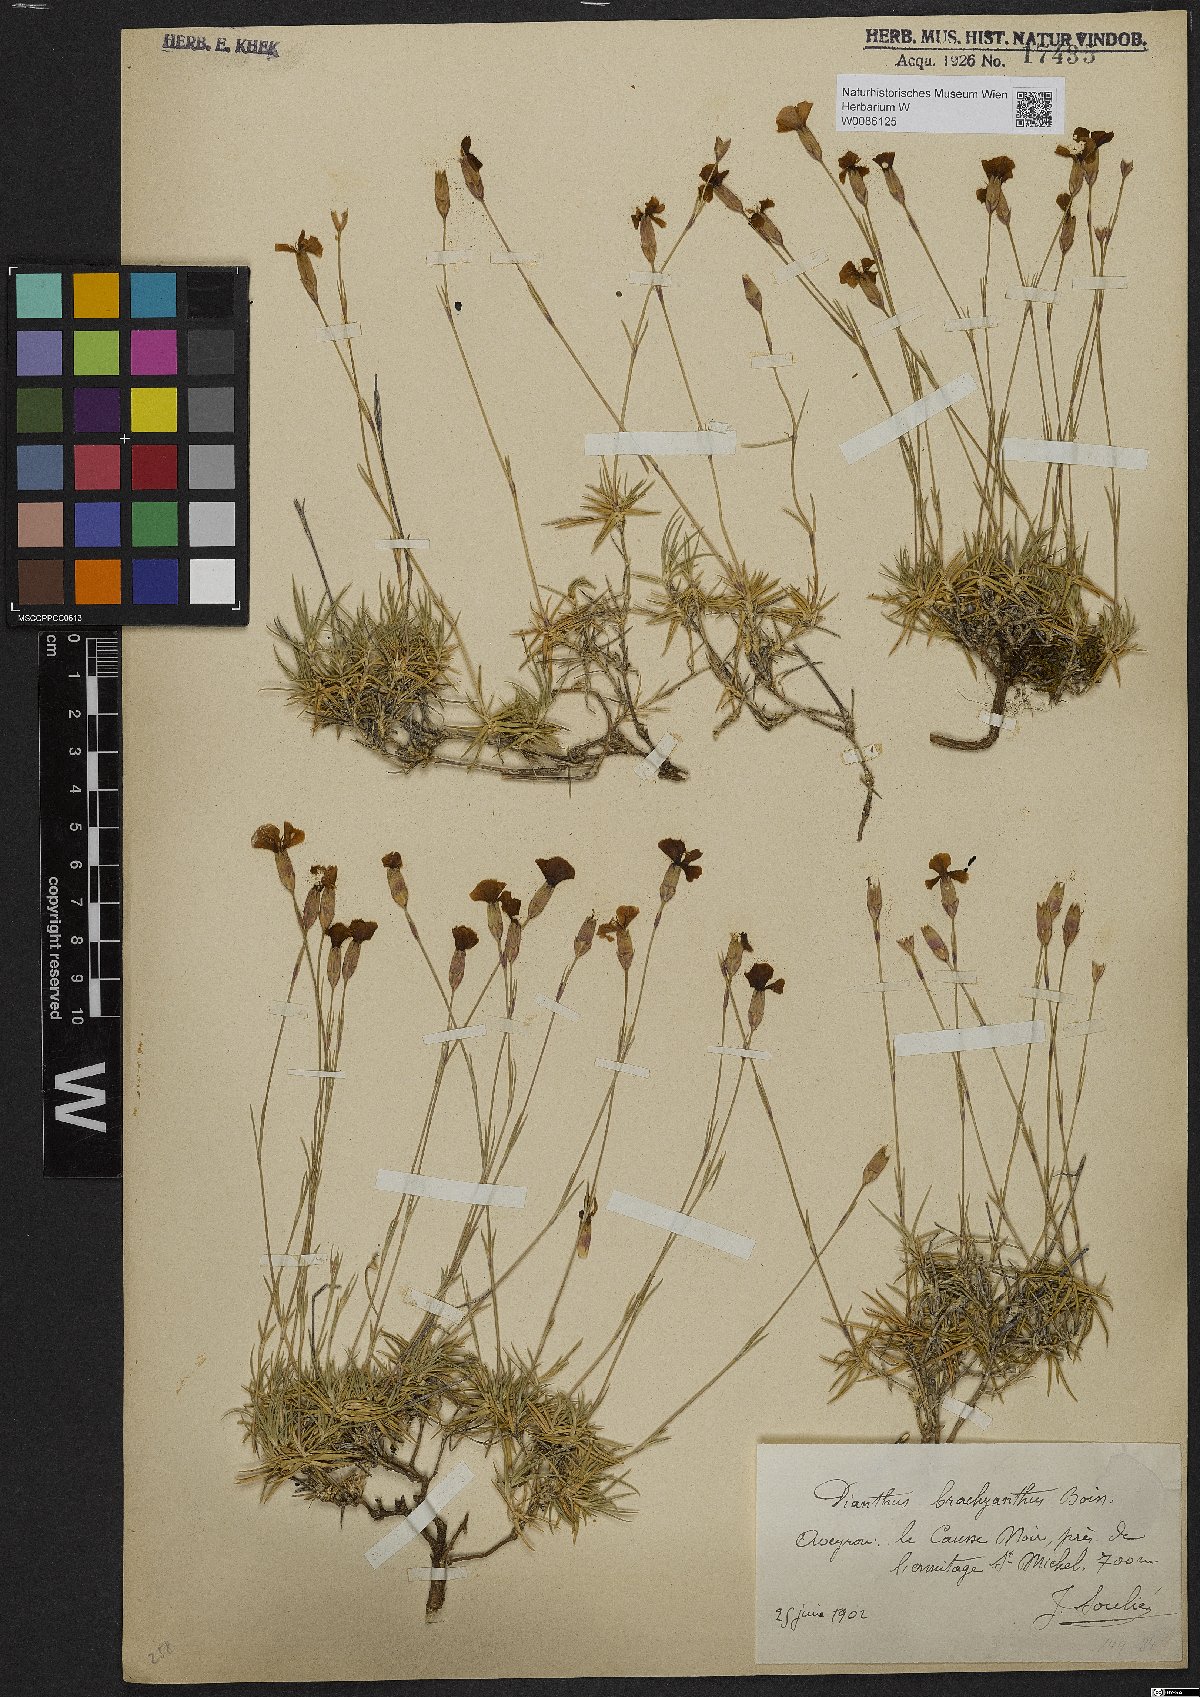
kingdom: Plantae
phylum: Tracheophyta
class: Magnoliopsida
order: Caryophyllales
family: Caryophyllaceae
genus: Dianthus
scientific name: Dianthus pungens
